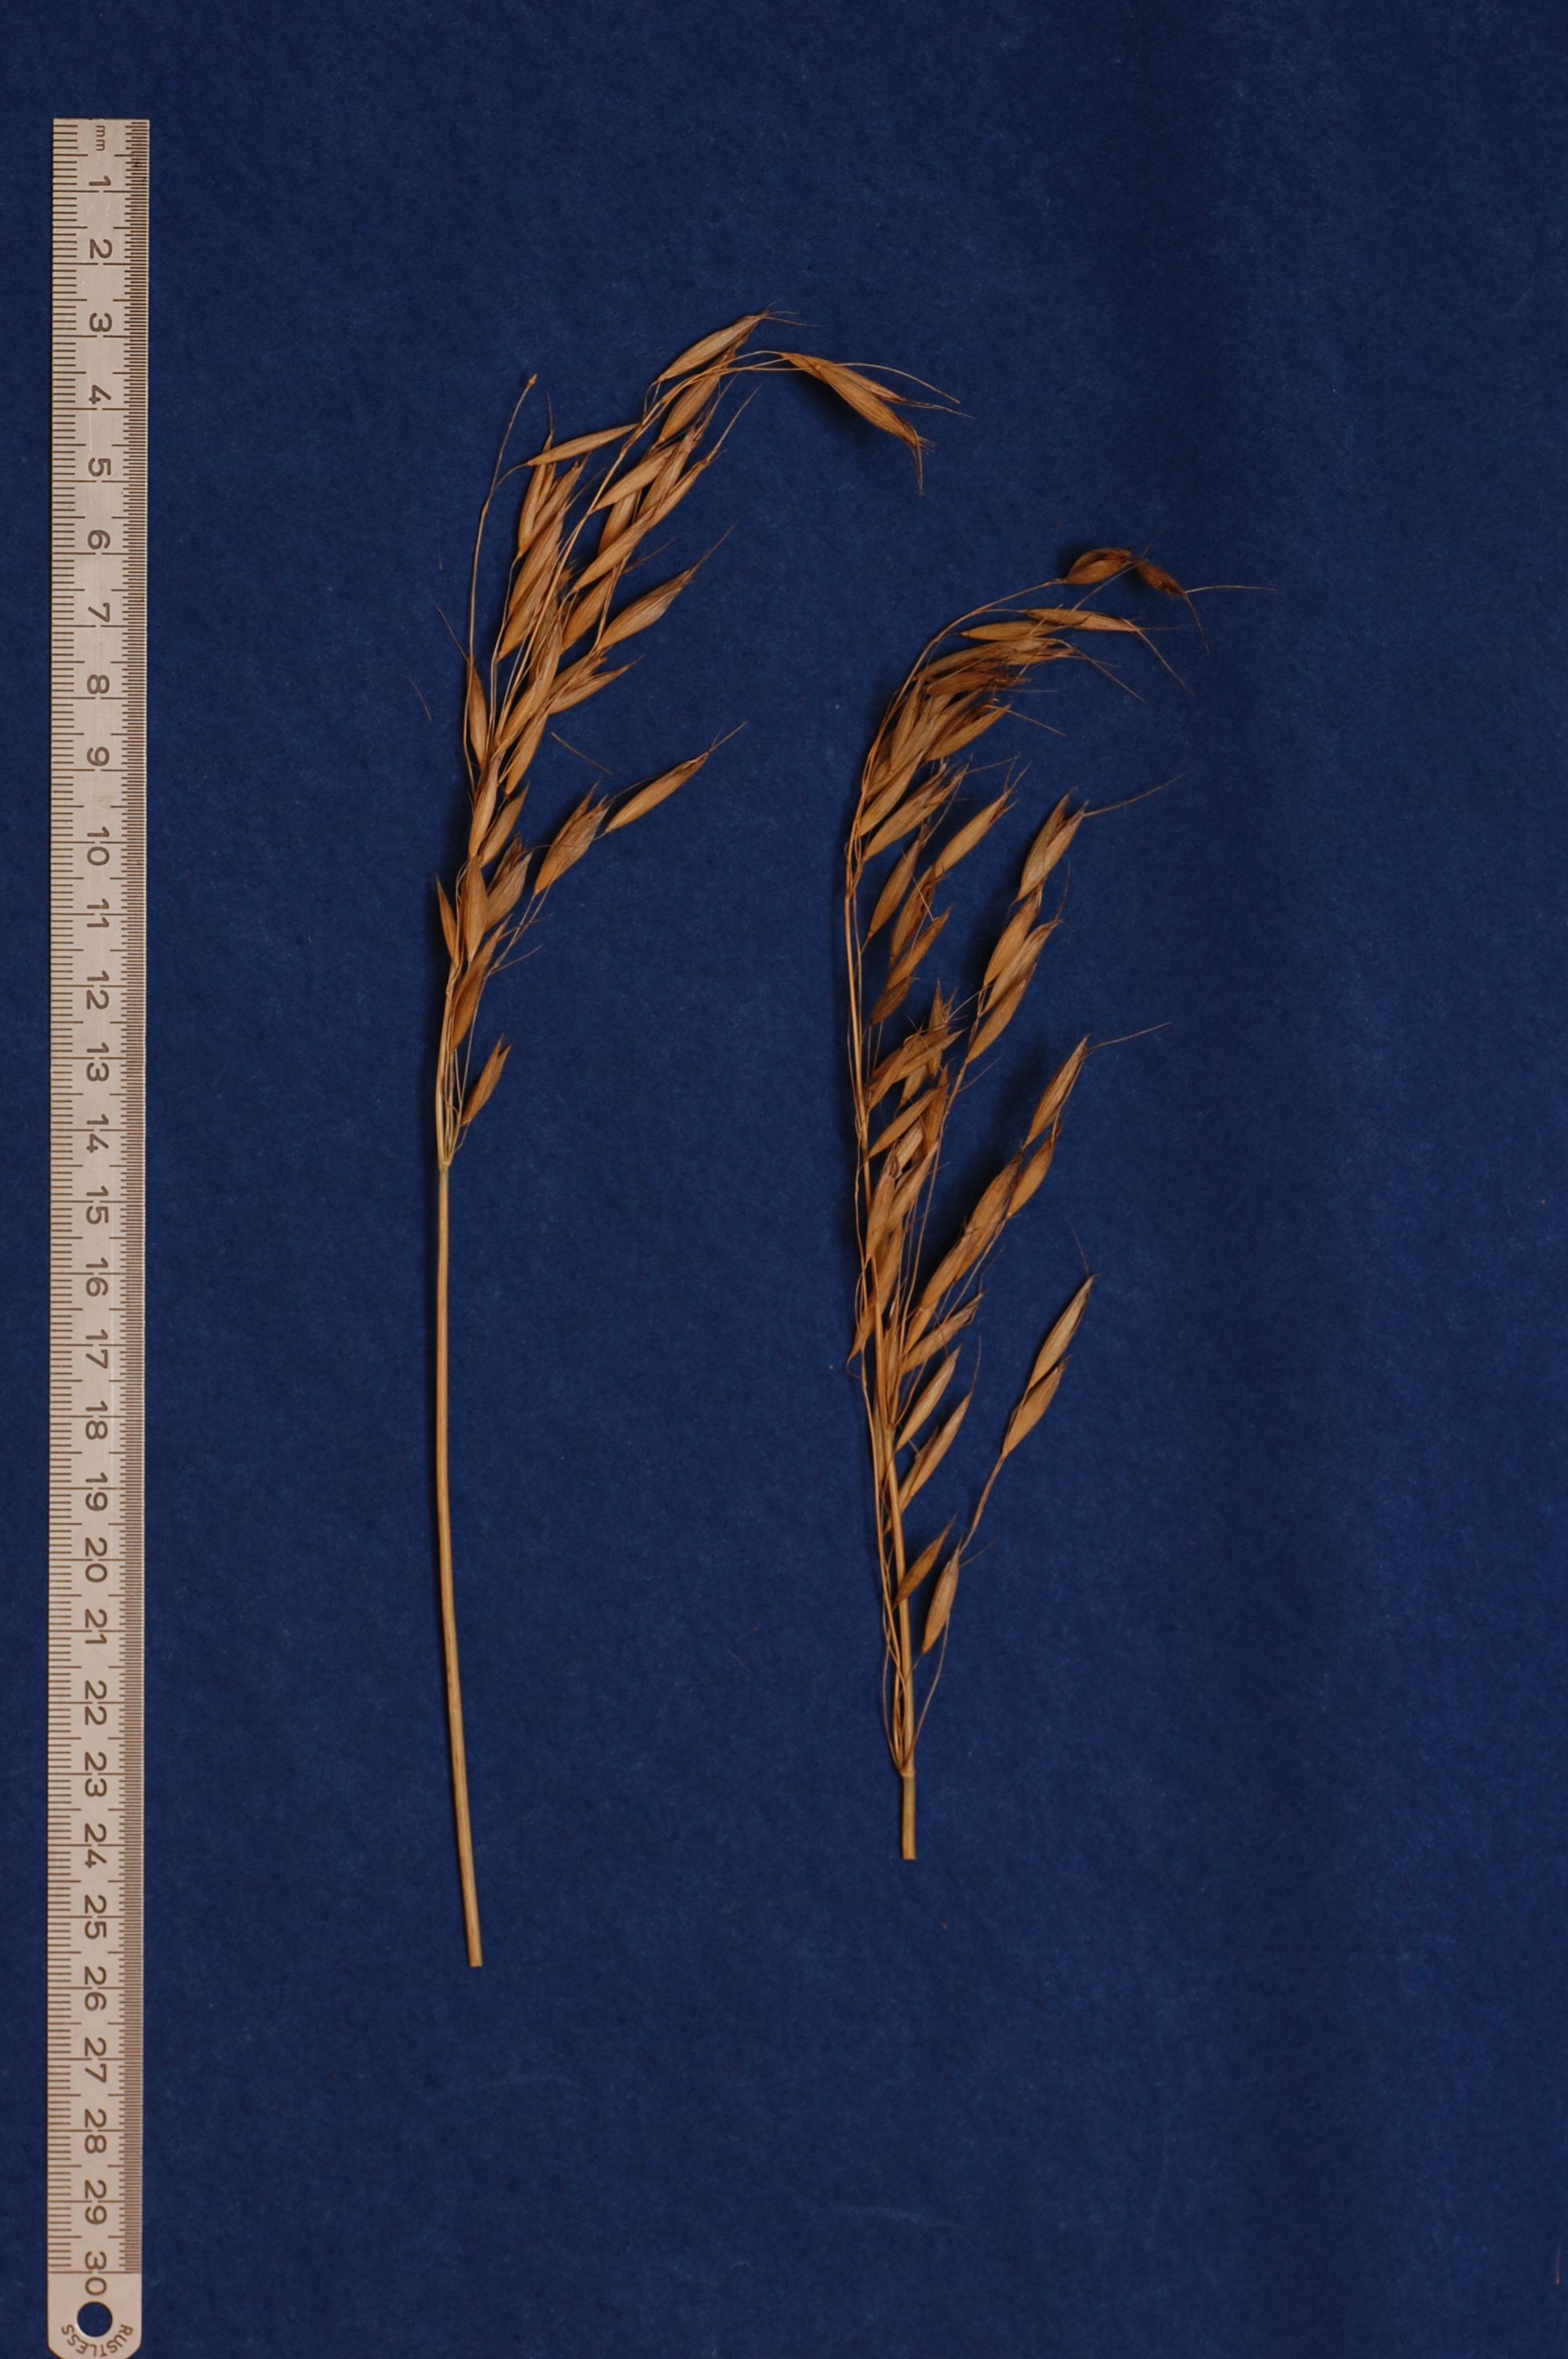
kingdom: Plantae
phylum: Tracheophyta
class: Liliopsida
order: Poales
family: Poaceae
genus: Avena
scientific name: Avena strigosa
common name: Bristle oat
